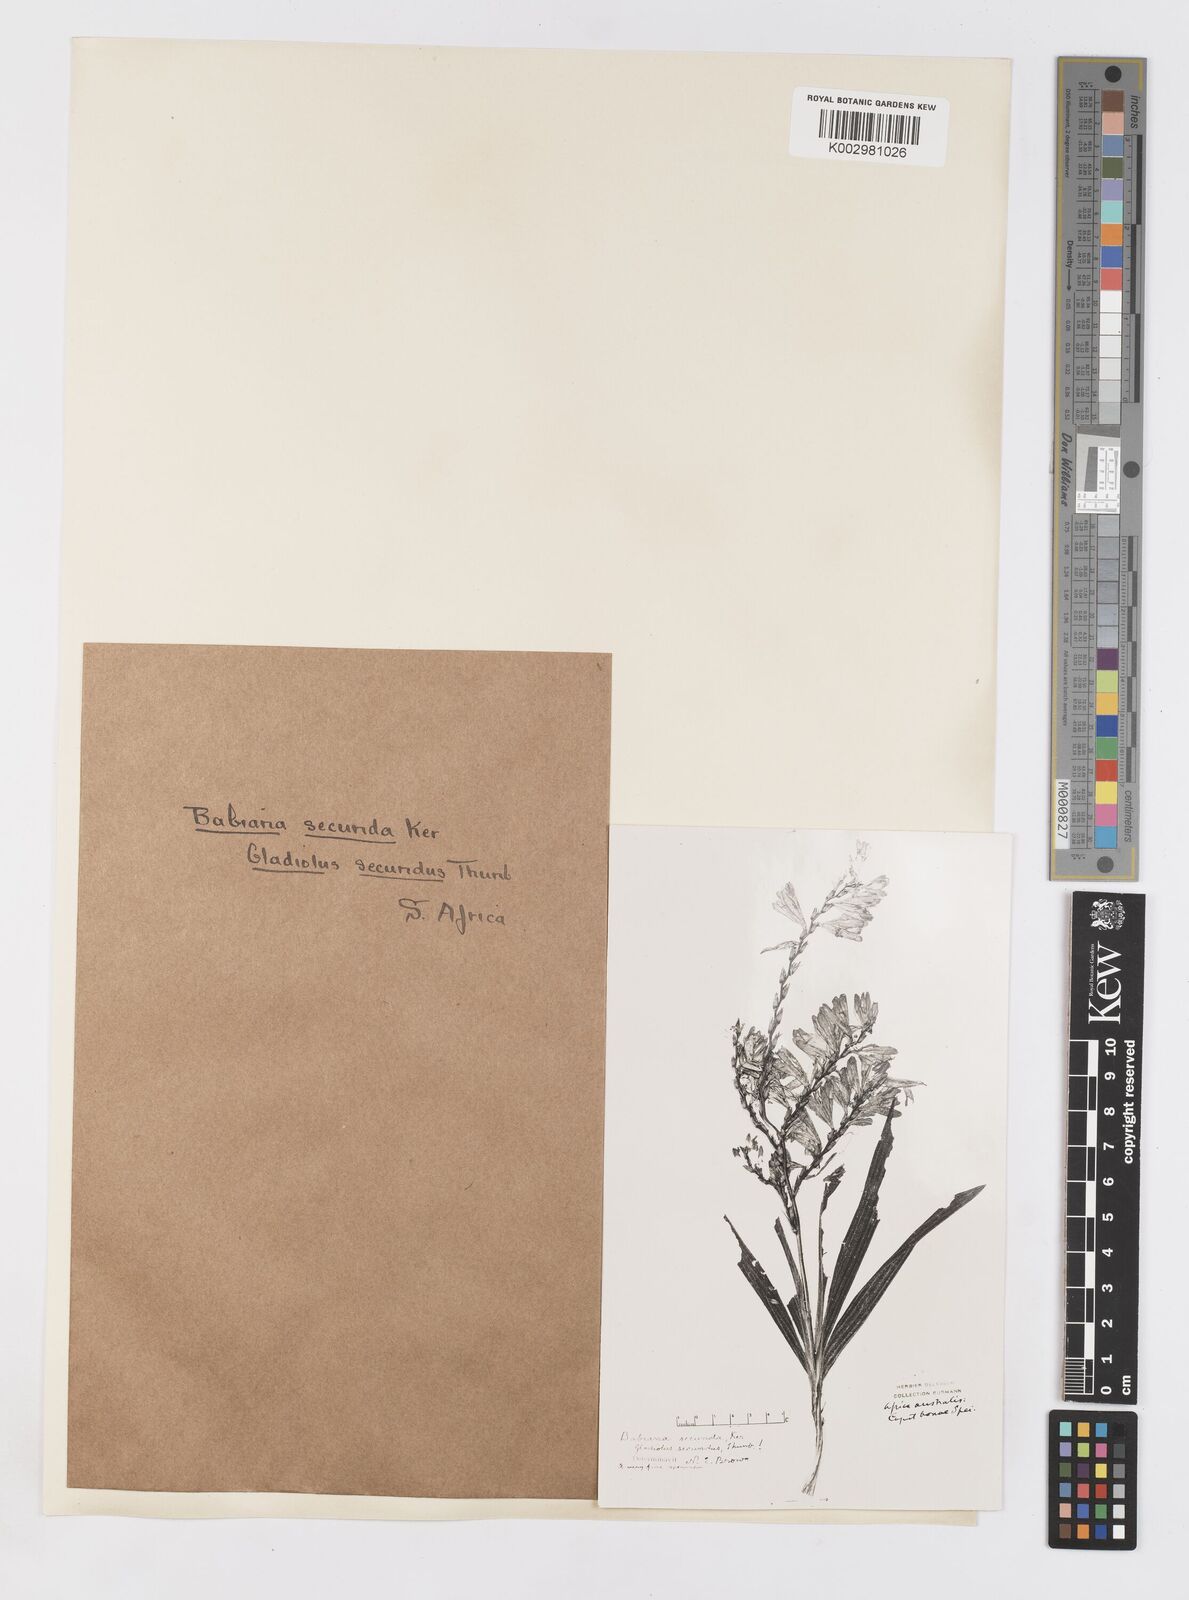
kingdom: Plantae
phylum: Tracheophyta
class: Liliopsida
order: Asparagales
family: Iridaceae
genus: Babiana
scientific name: Babiana secunda
